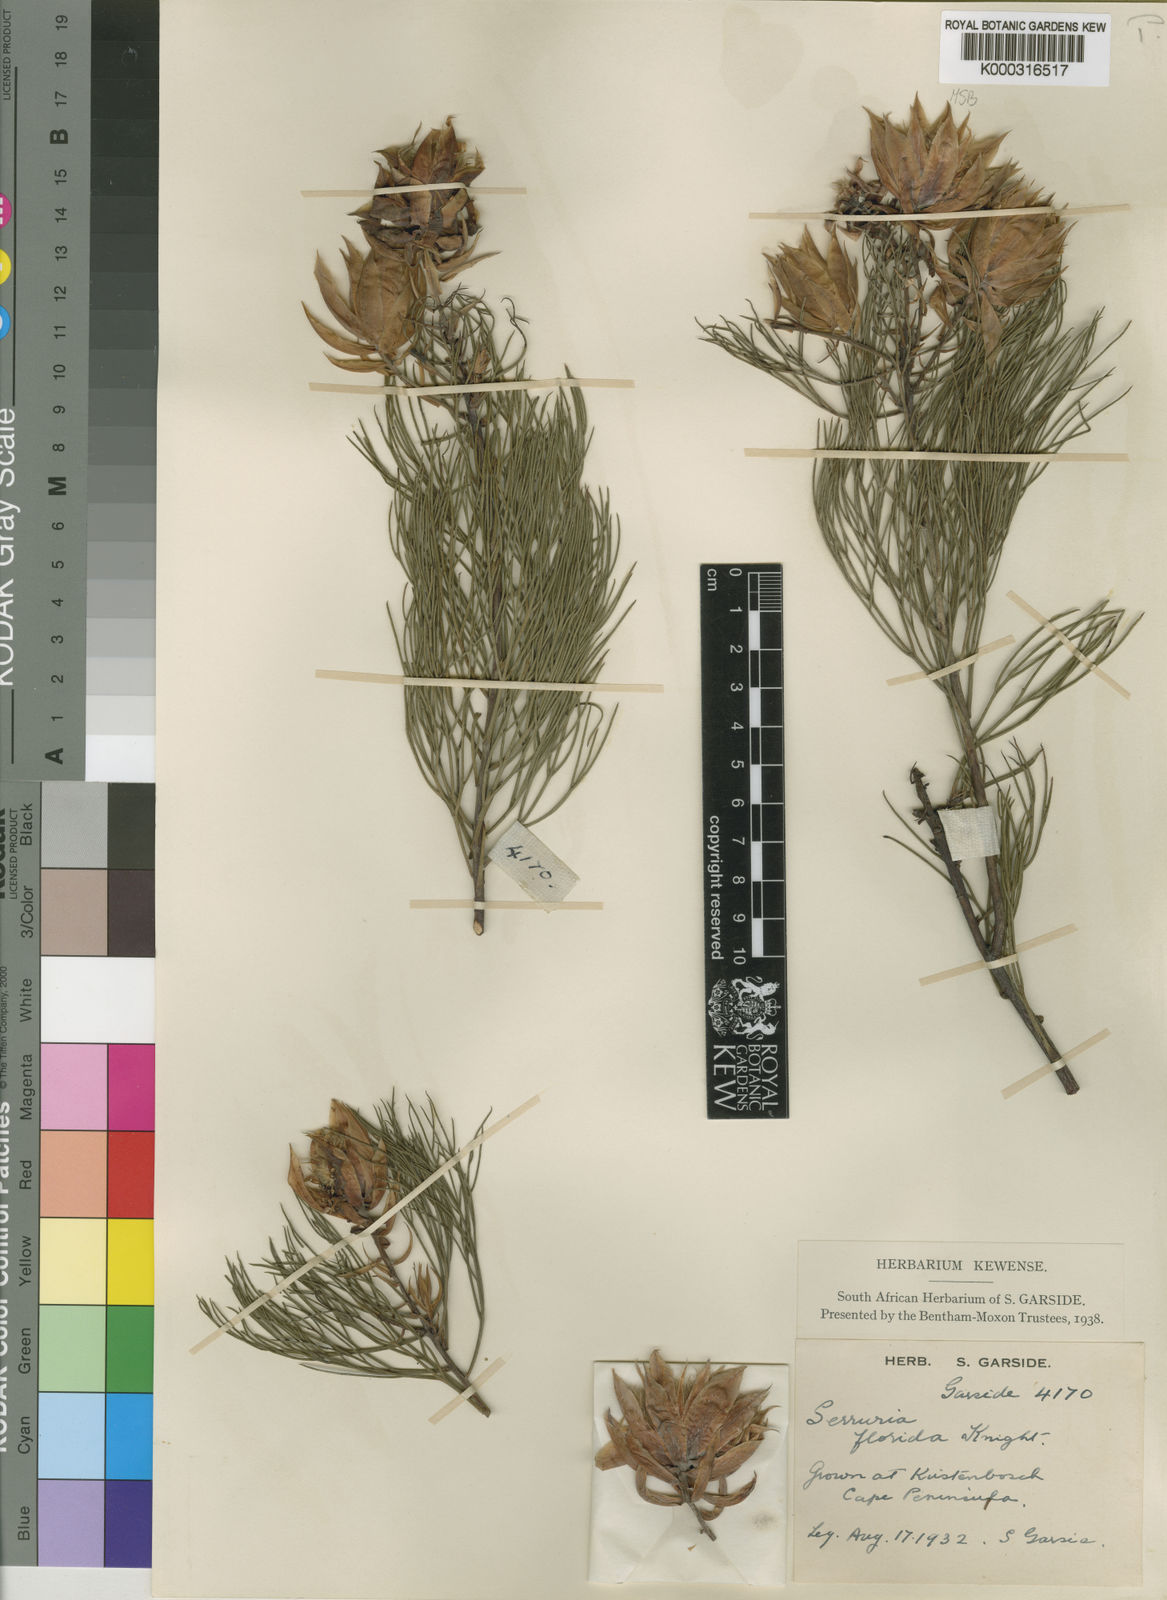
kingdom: Plantae
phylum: Tracheophyta
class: Magnoliopsida
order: Proteales
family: Proteaceae
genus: Serruria
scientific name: Serruria florida
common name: Blushing bride
